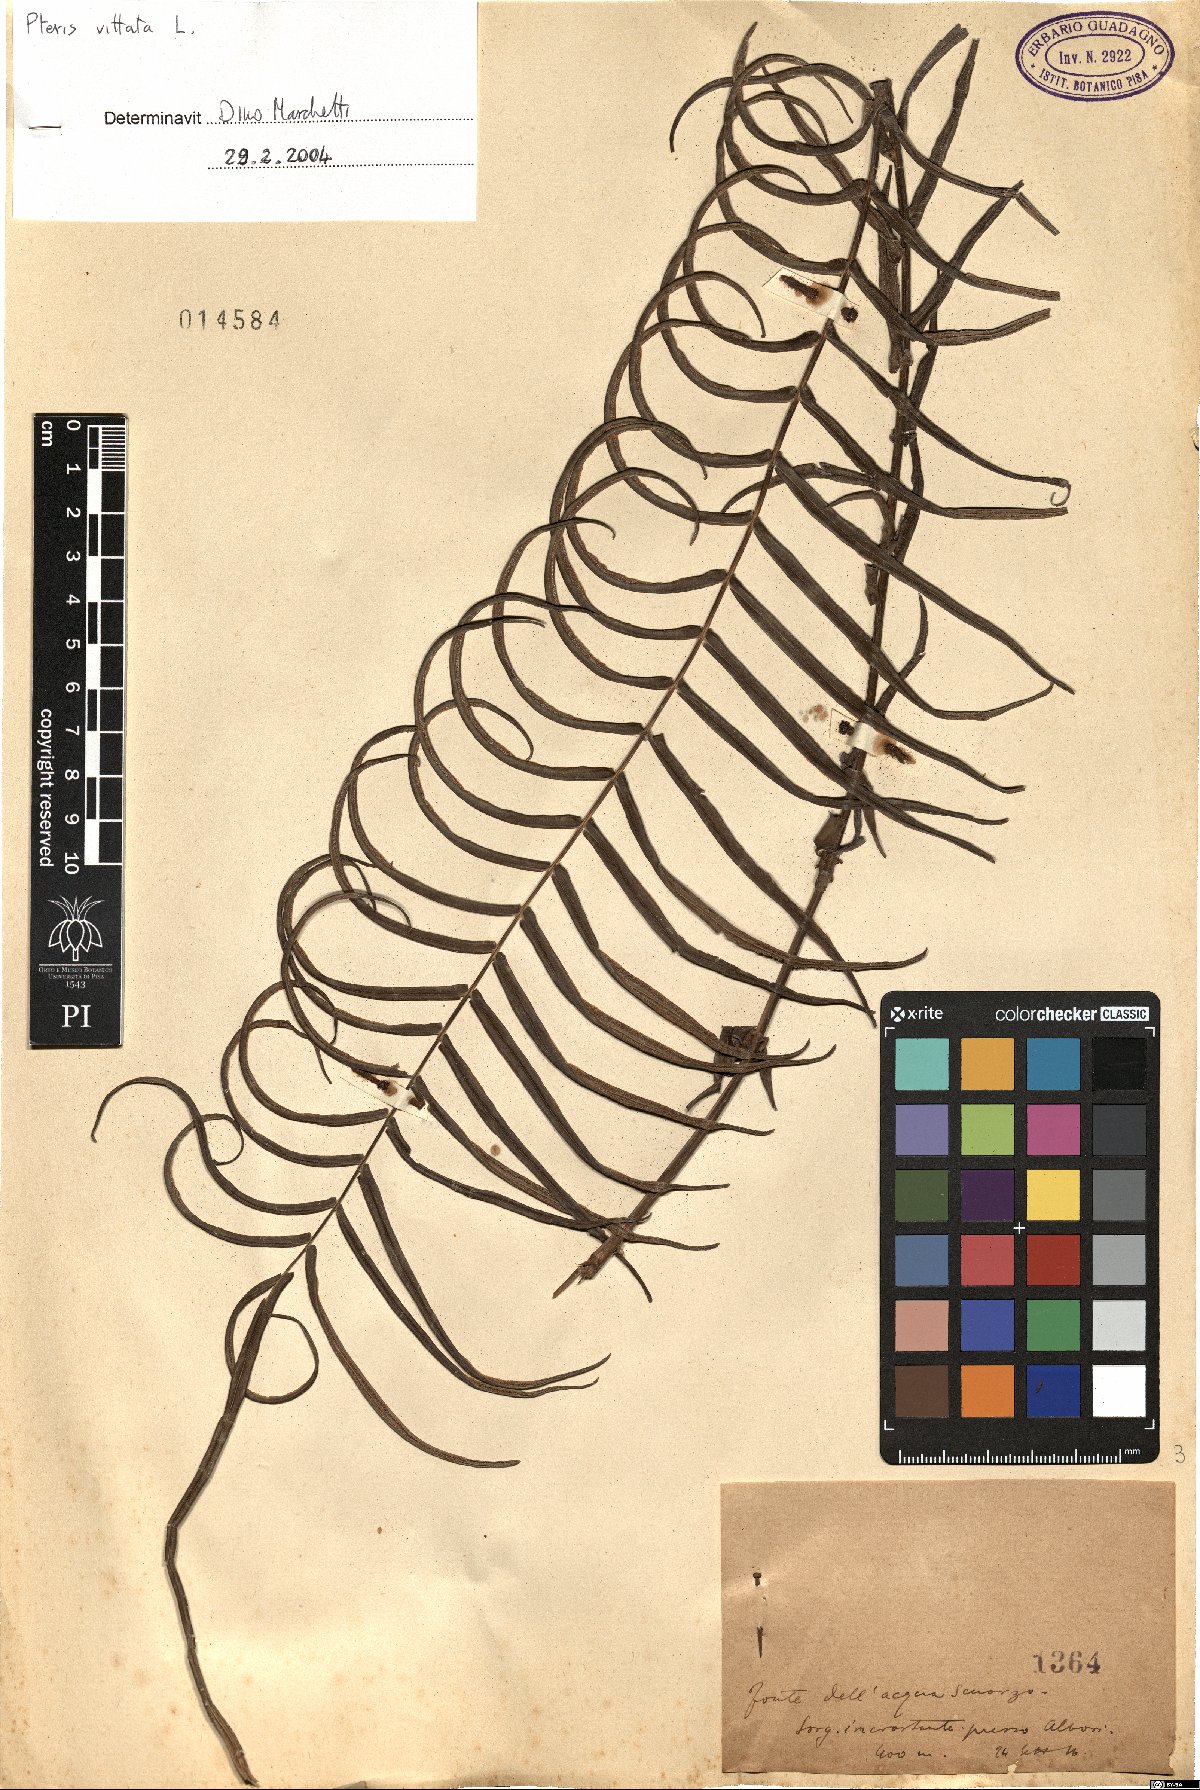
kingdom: Plantae
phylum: Tracheophyta
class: Polypodiopsida
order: Polypodiales
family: Pteridaceae
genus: Pteris
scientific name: Pteris vittata
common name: Ladder brake
